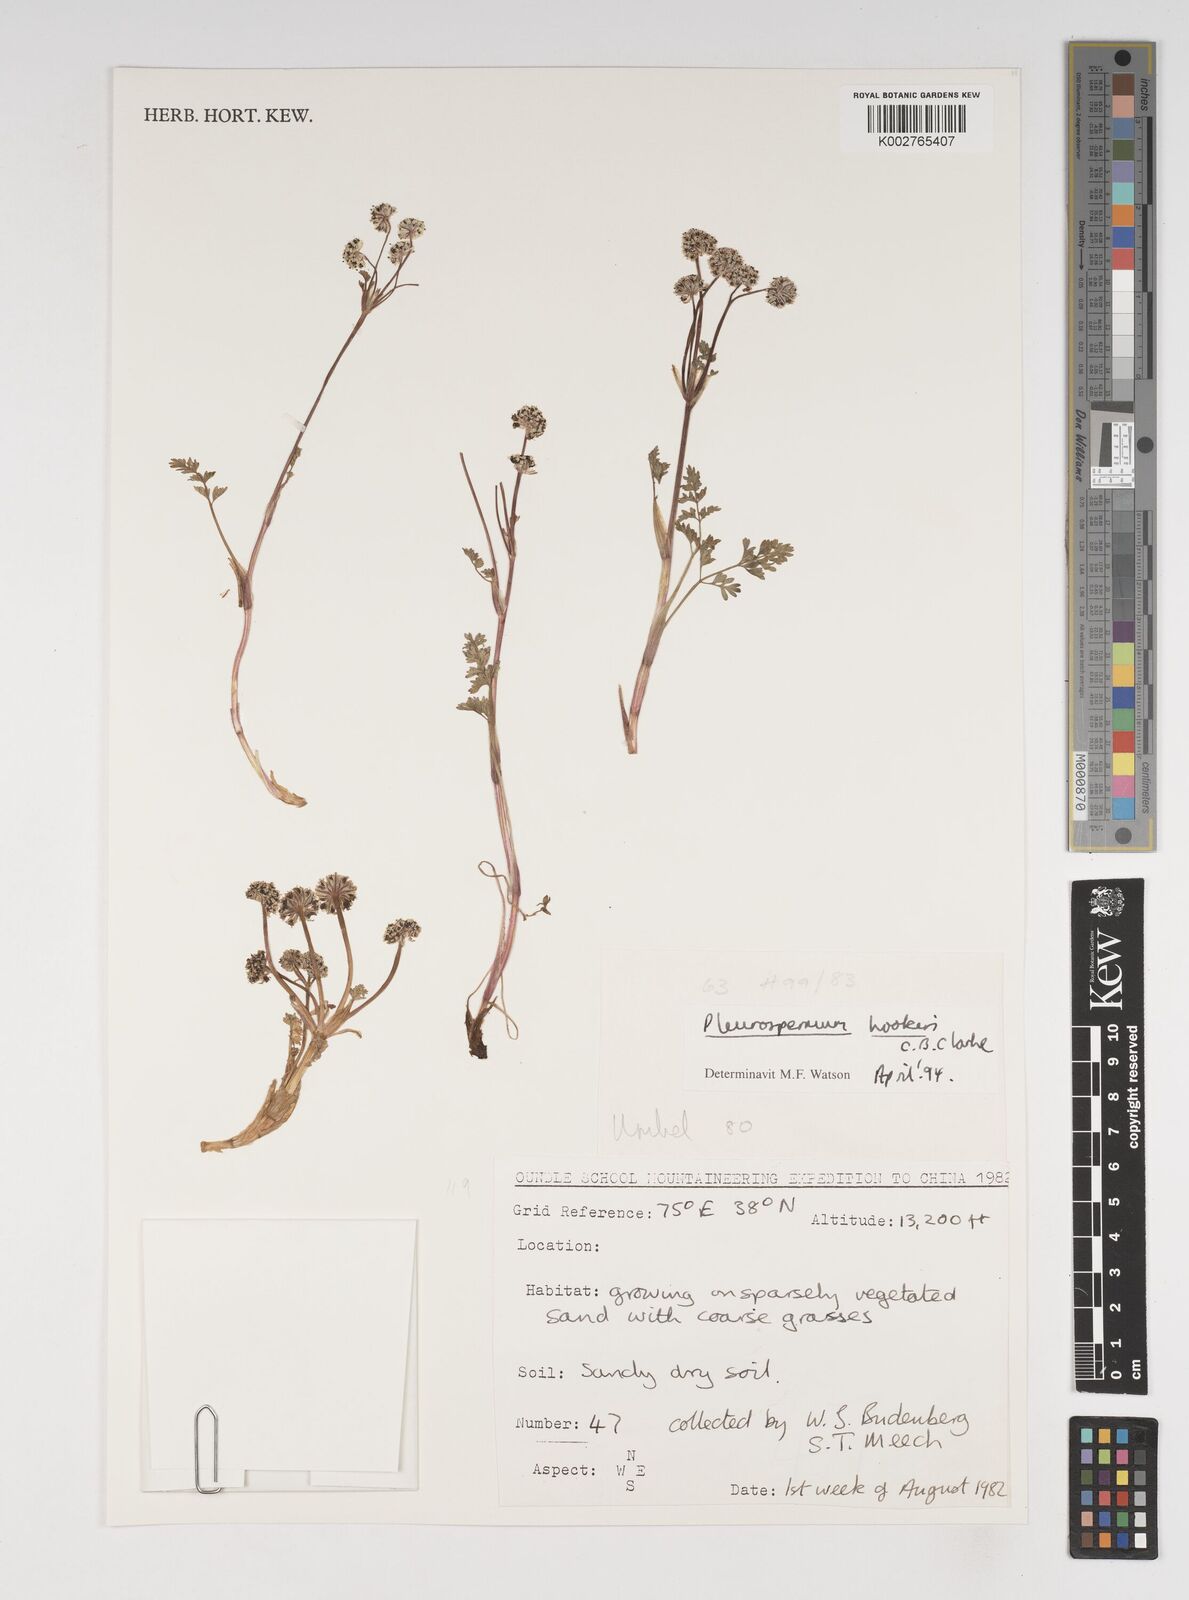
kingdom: Plantae
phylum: Tracheophyta
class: Magnoliopsida
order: Apiales
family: Apiaceae
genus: Pleurospermum
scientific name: Pleurospermum hookeri
